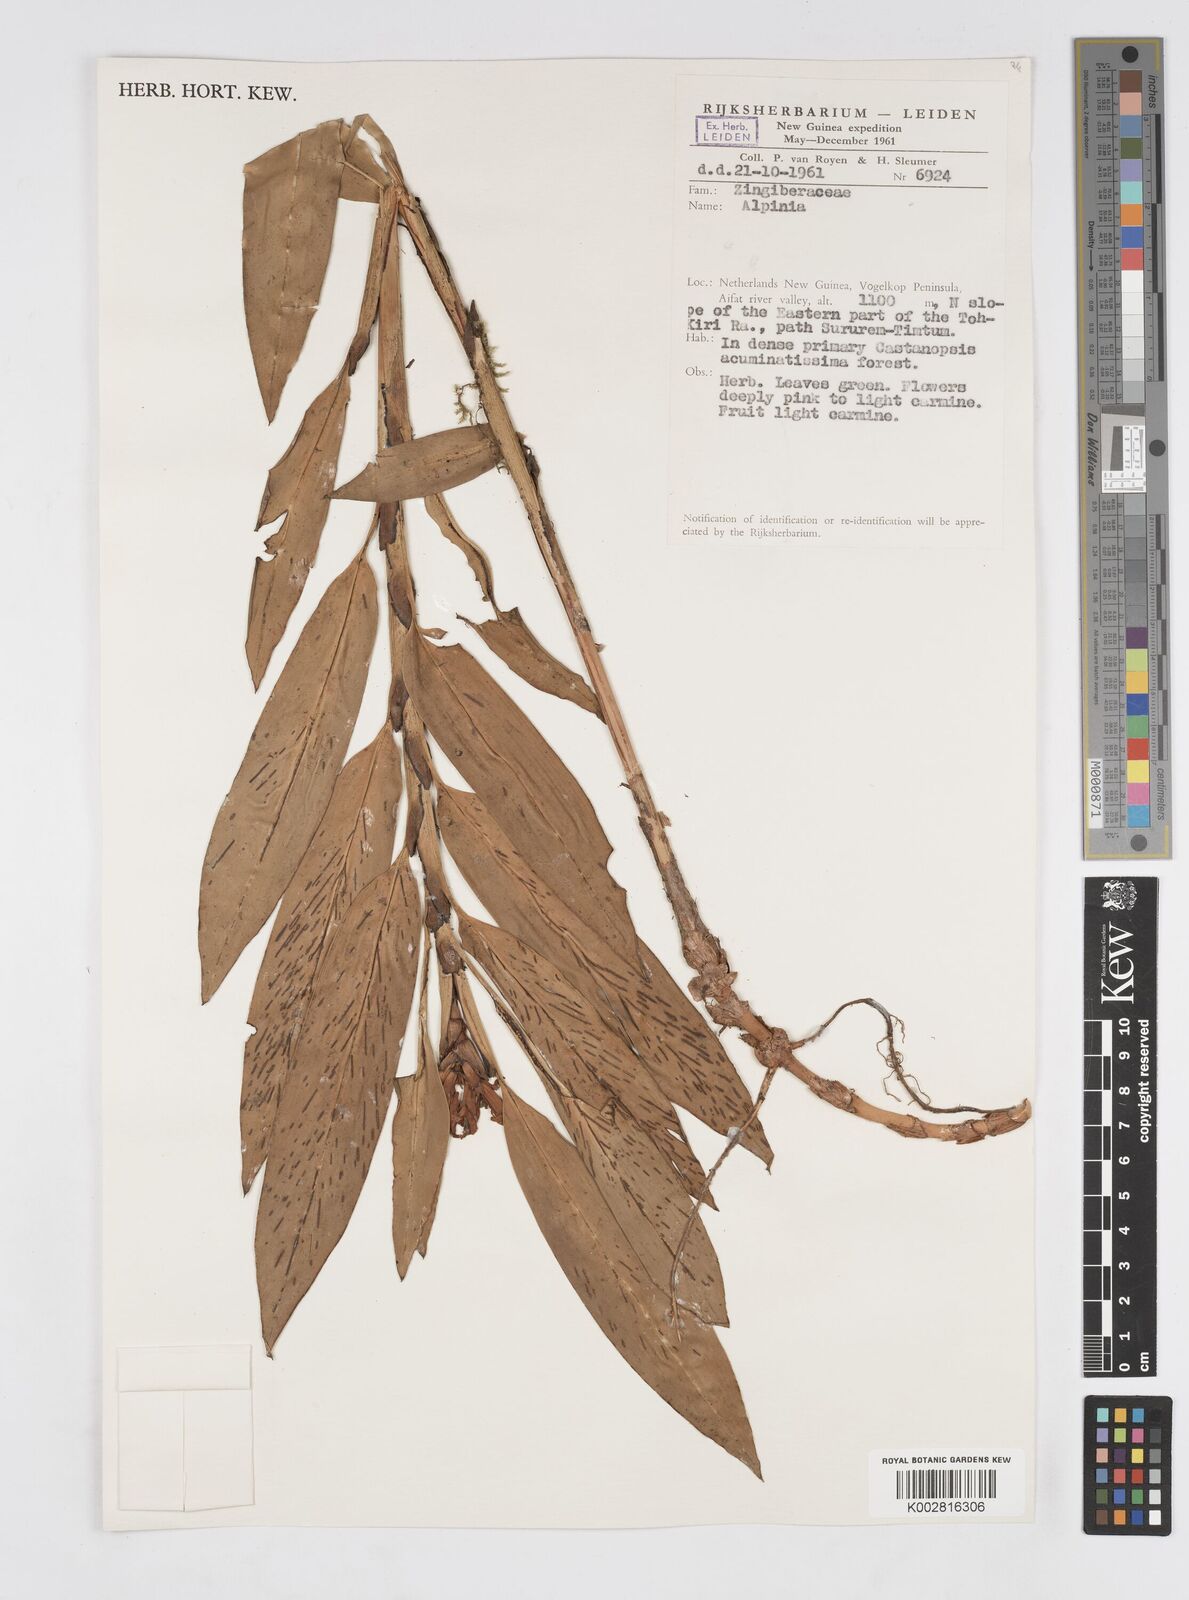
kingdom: Plantae
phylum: Tracheophyta
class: Liliopsida
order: Zingiberales
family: Zingiberaceae
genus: Alpinia
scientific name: Alpinia domatifera
